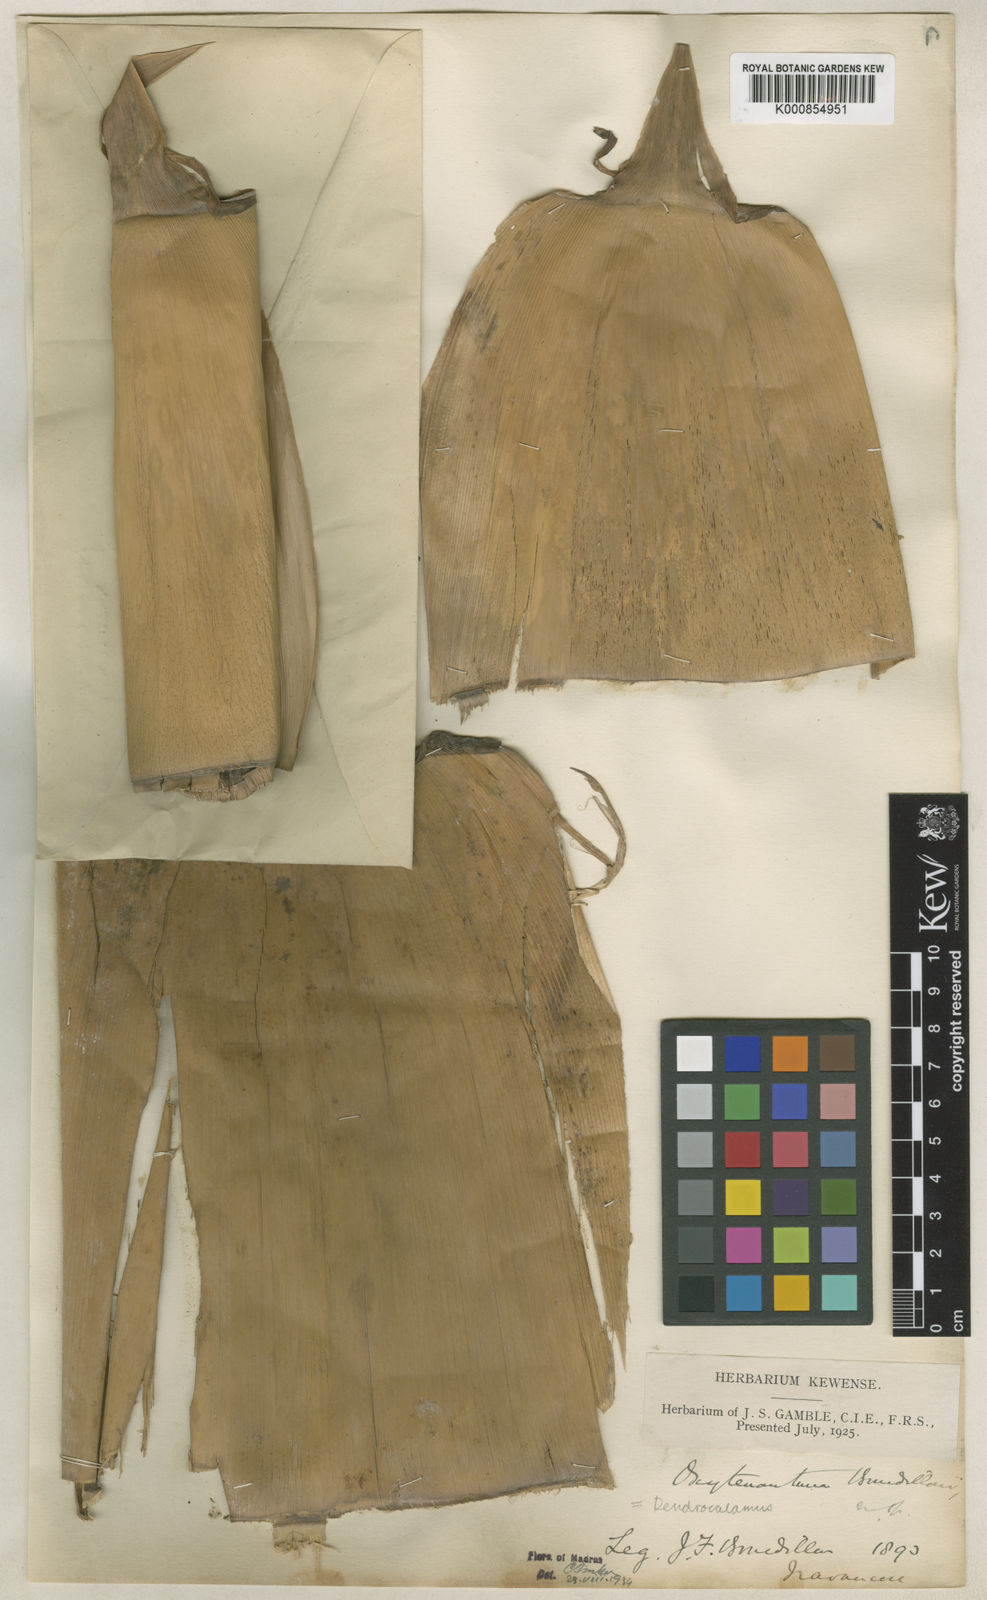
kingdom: Plantae
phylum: Tracheophyta
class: Liliopsida
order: Poales
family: Poaceae
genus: Dendrocalamus
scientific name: Dendrocalamus
